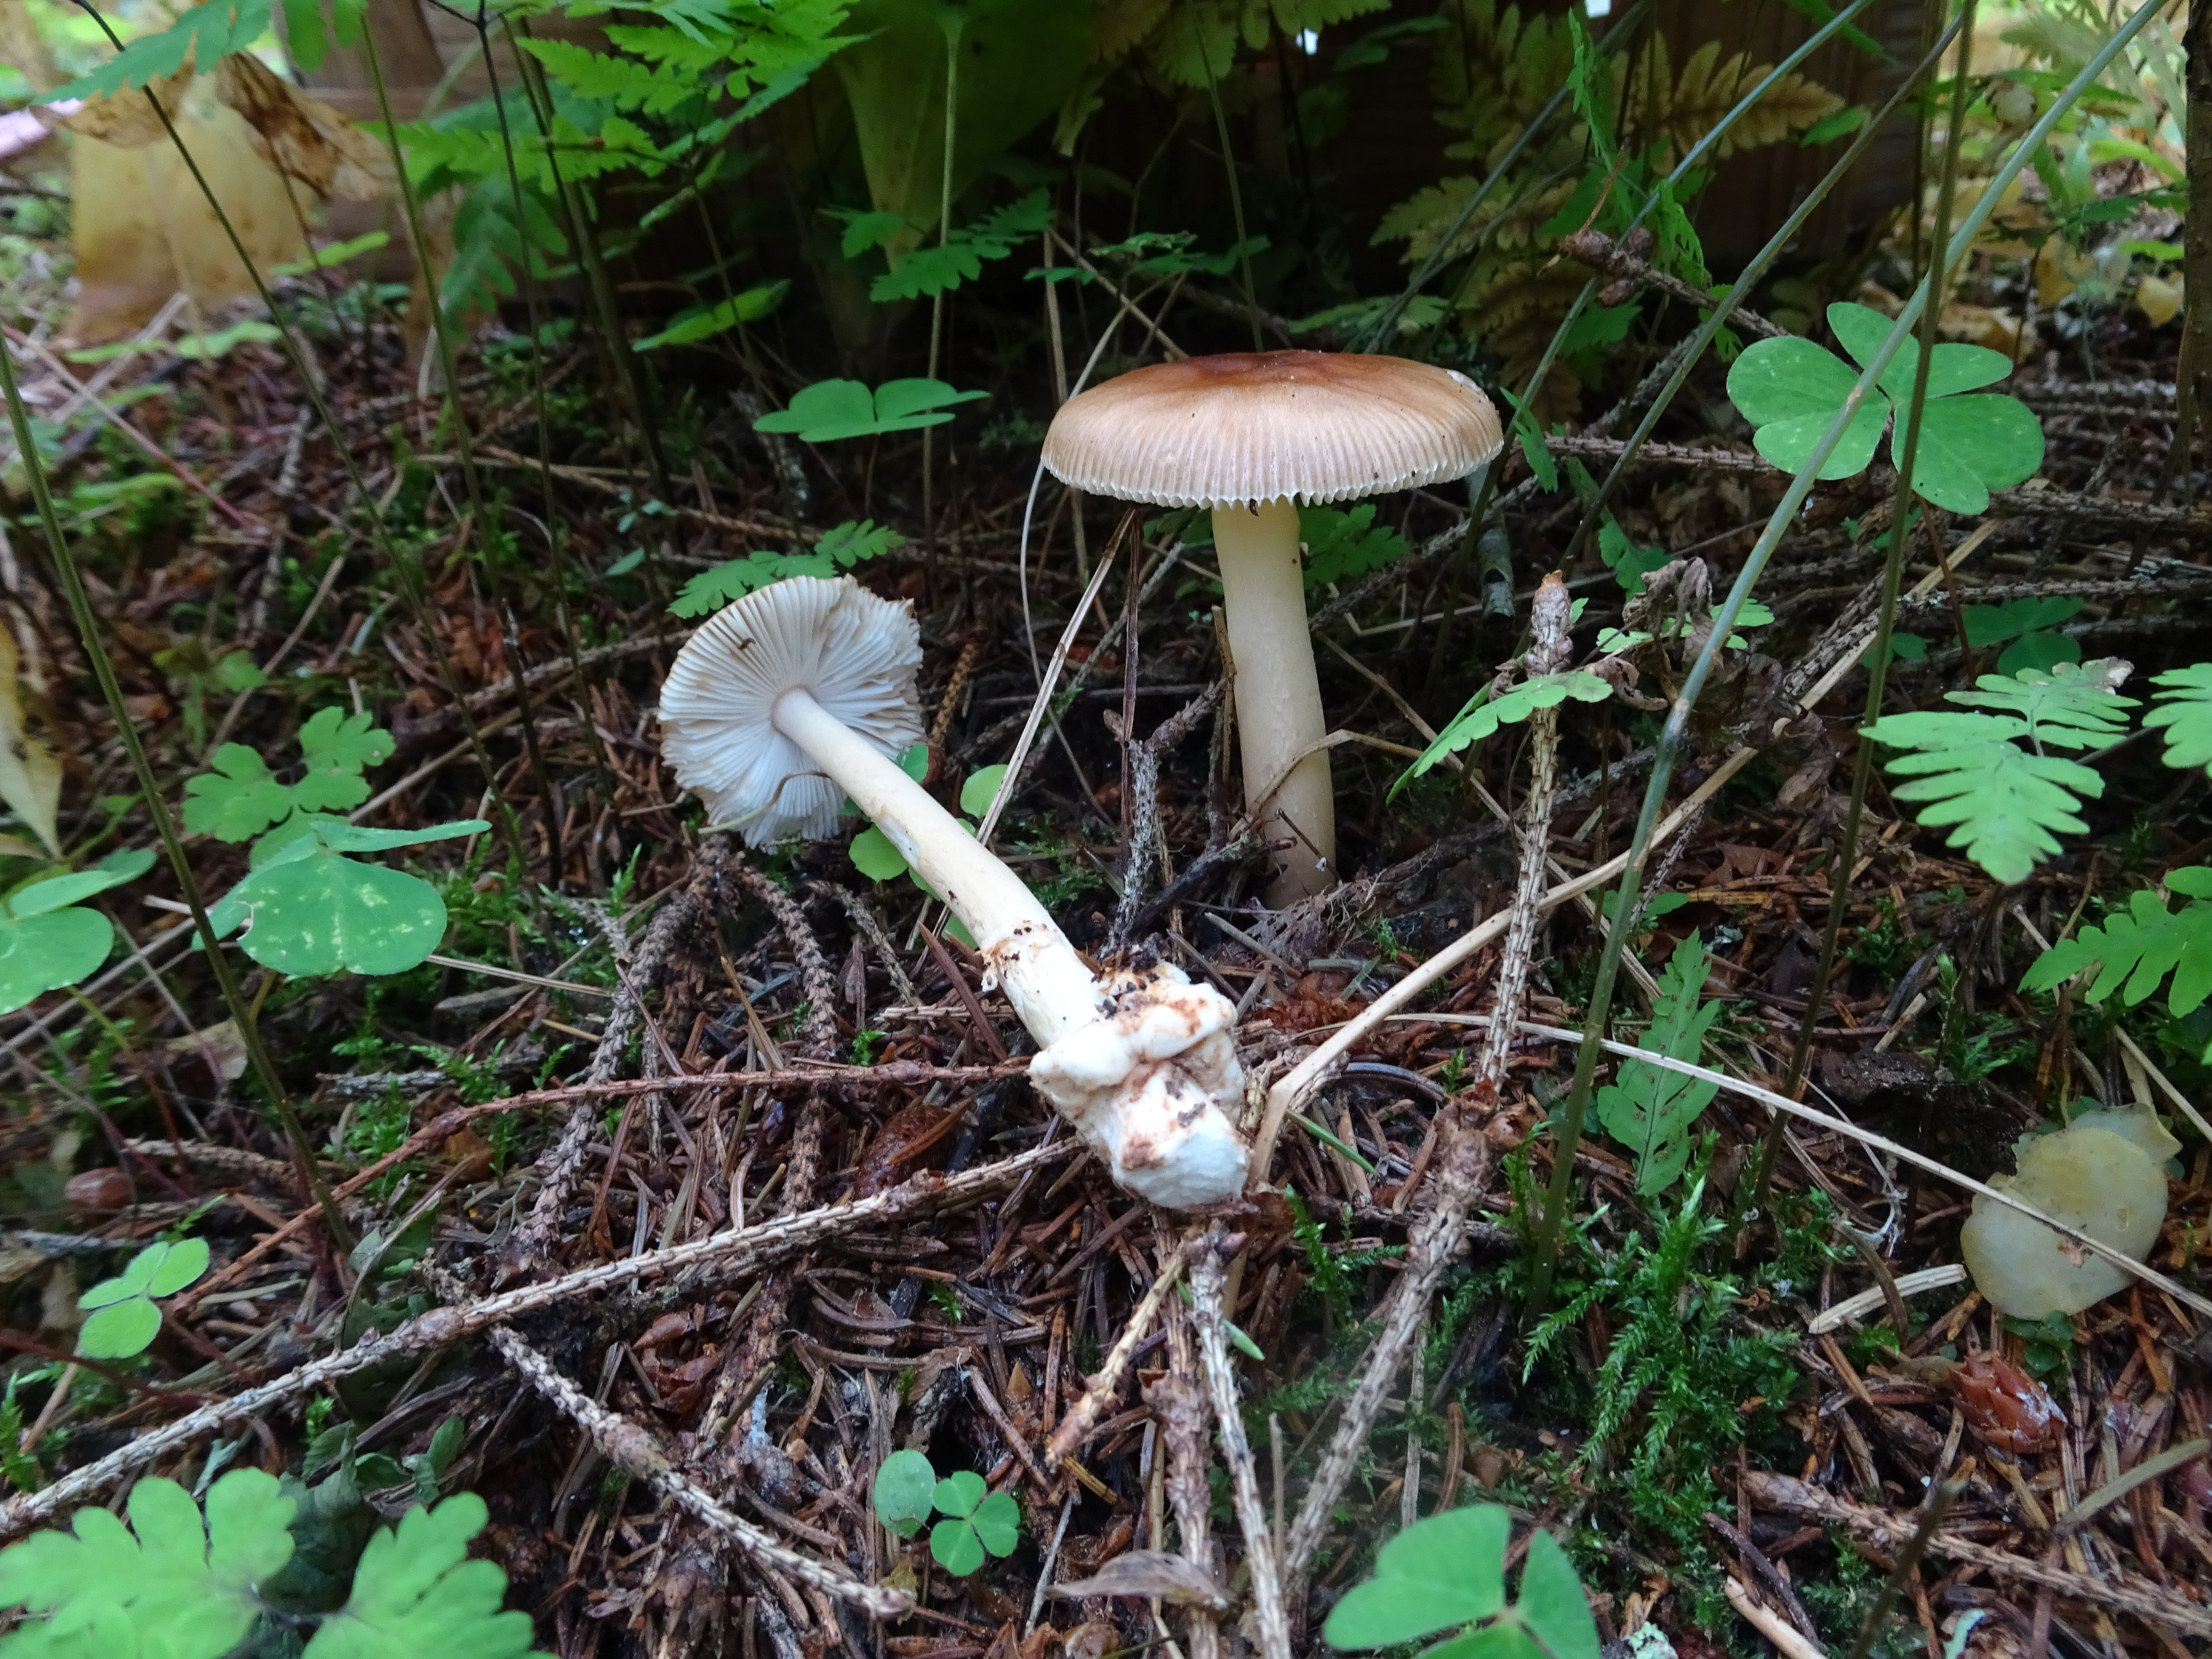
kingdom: Fungi
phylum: Basidiomycota
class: Agaricomycetes
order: Agaricales
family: Amanitaceae
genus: Amanita
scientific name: Amanita fulva
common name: Tawny grisette
